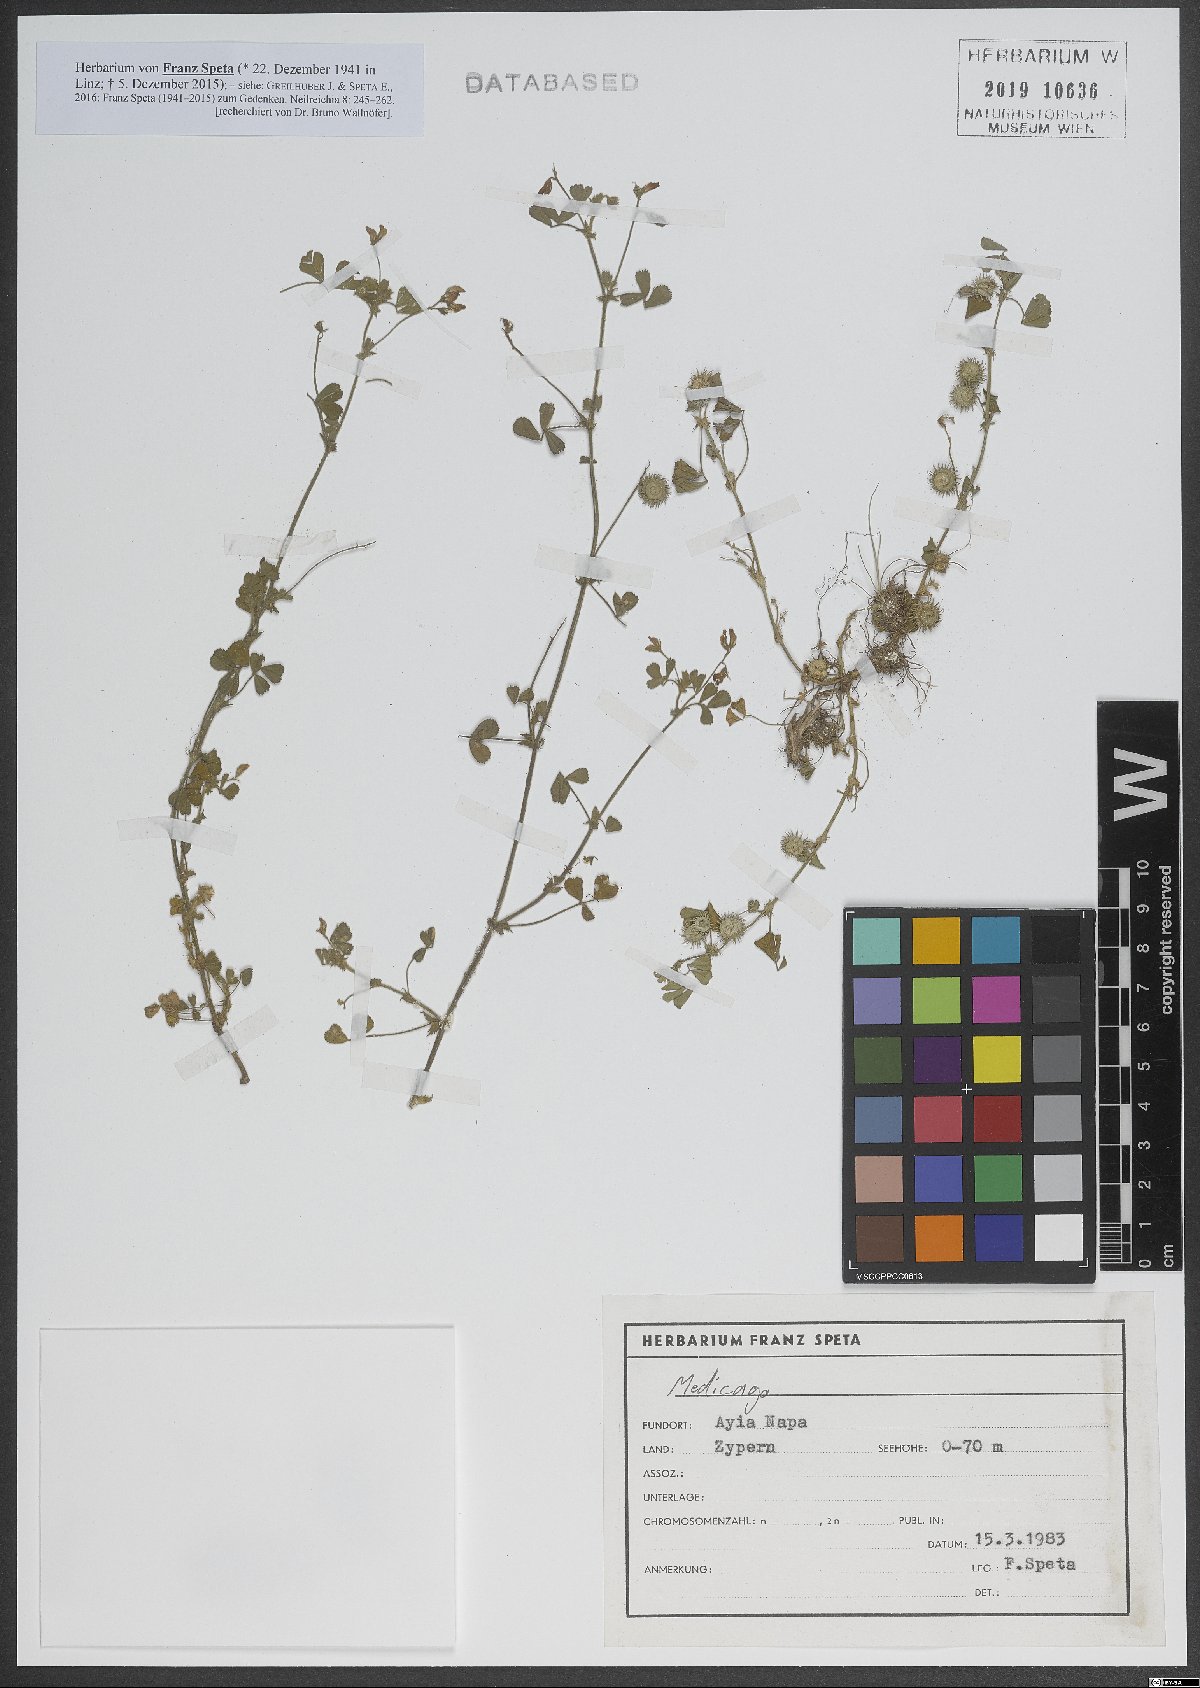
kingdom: Plantae
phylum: Tracheophyta
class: Magnoliopsida
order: Fabales
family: Fabaceae
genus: Medicago
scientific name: Medicago
